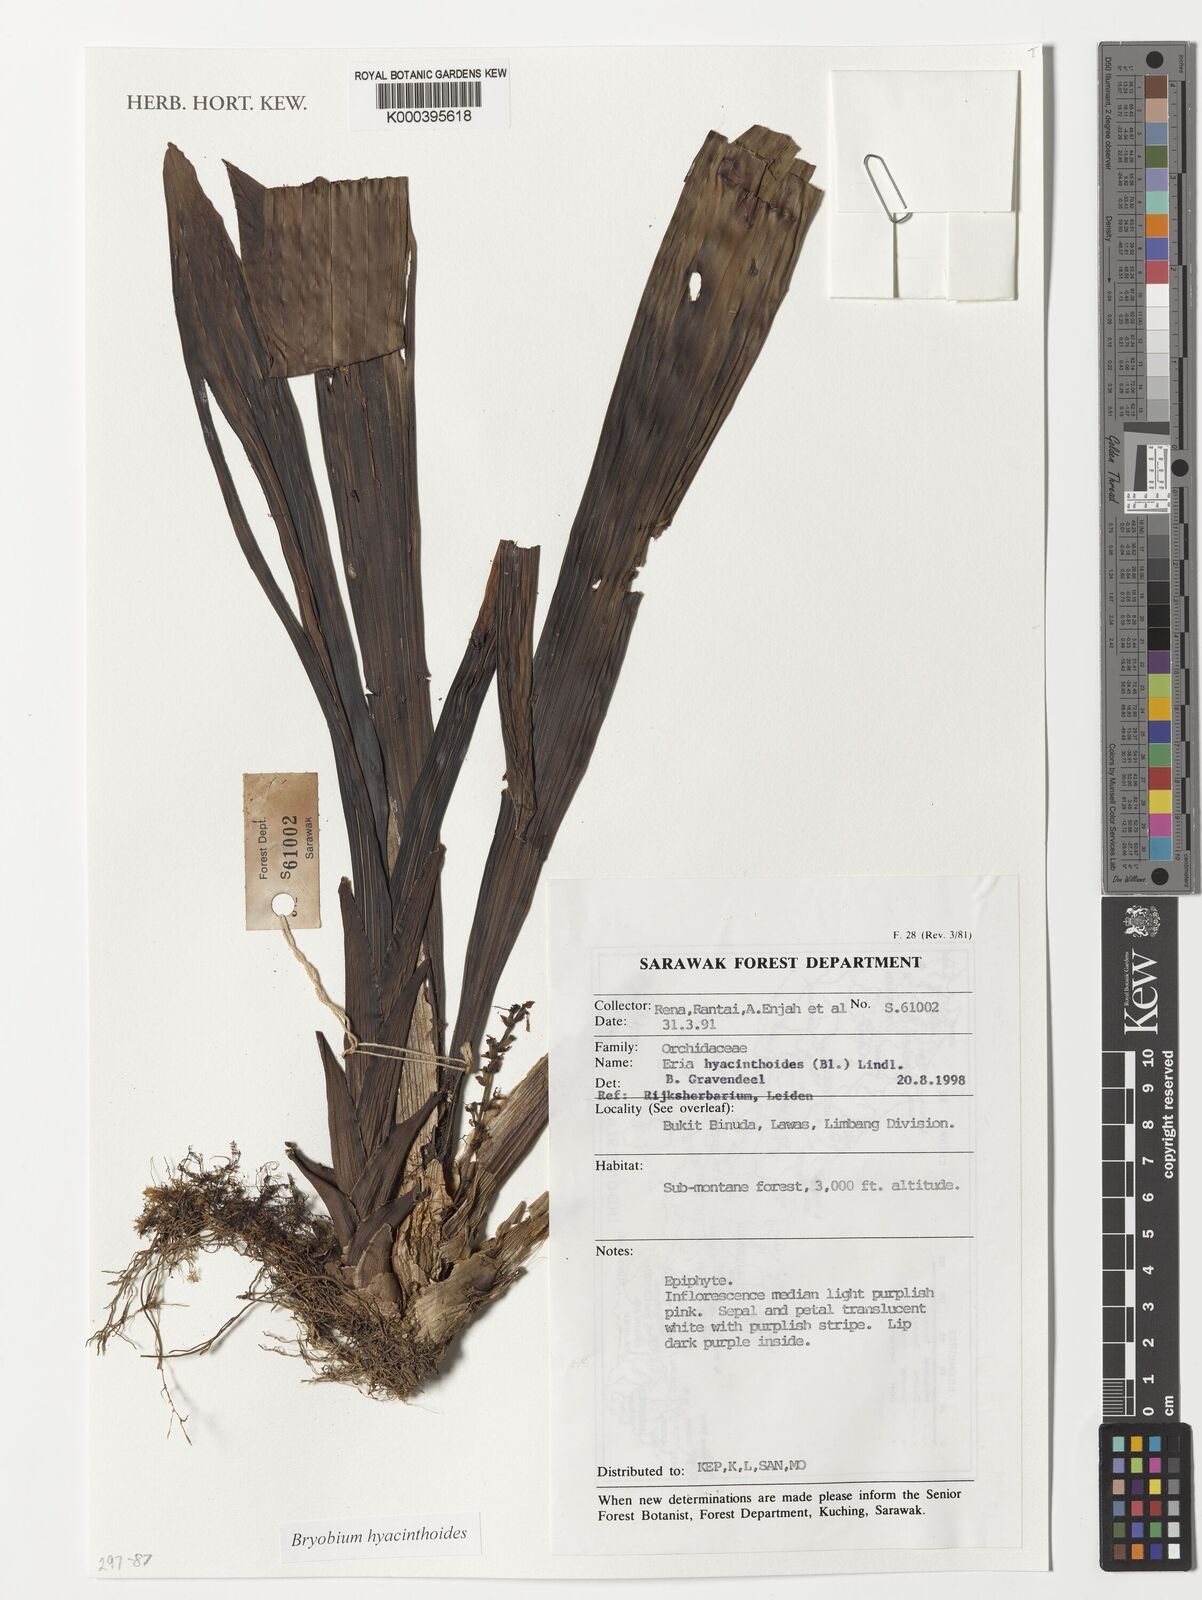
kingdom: Plantae
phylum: Tracheophyta
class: Liliopsida
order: Asparagales
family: Orchidaceae
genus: Bryobium
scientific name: Bryobium hyacinthoides
